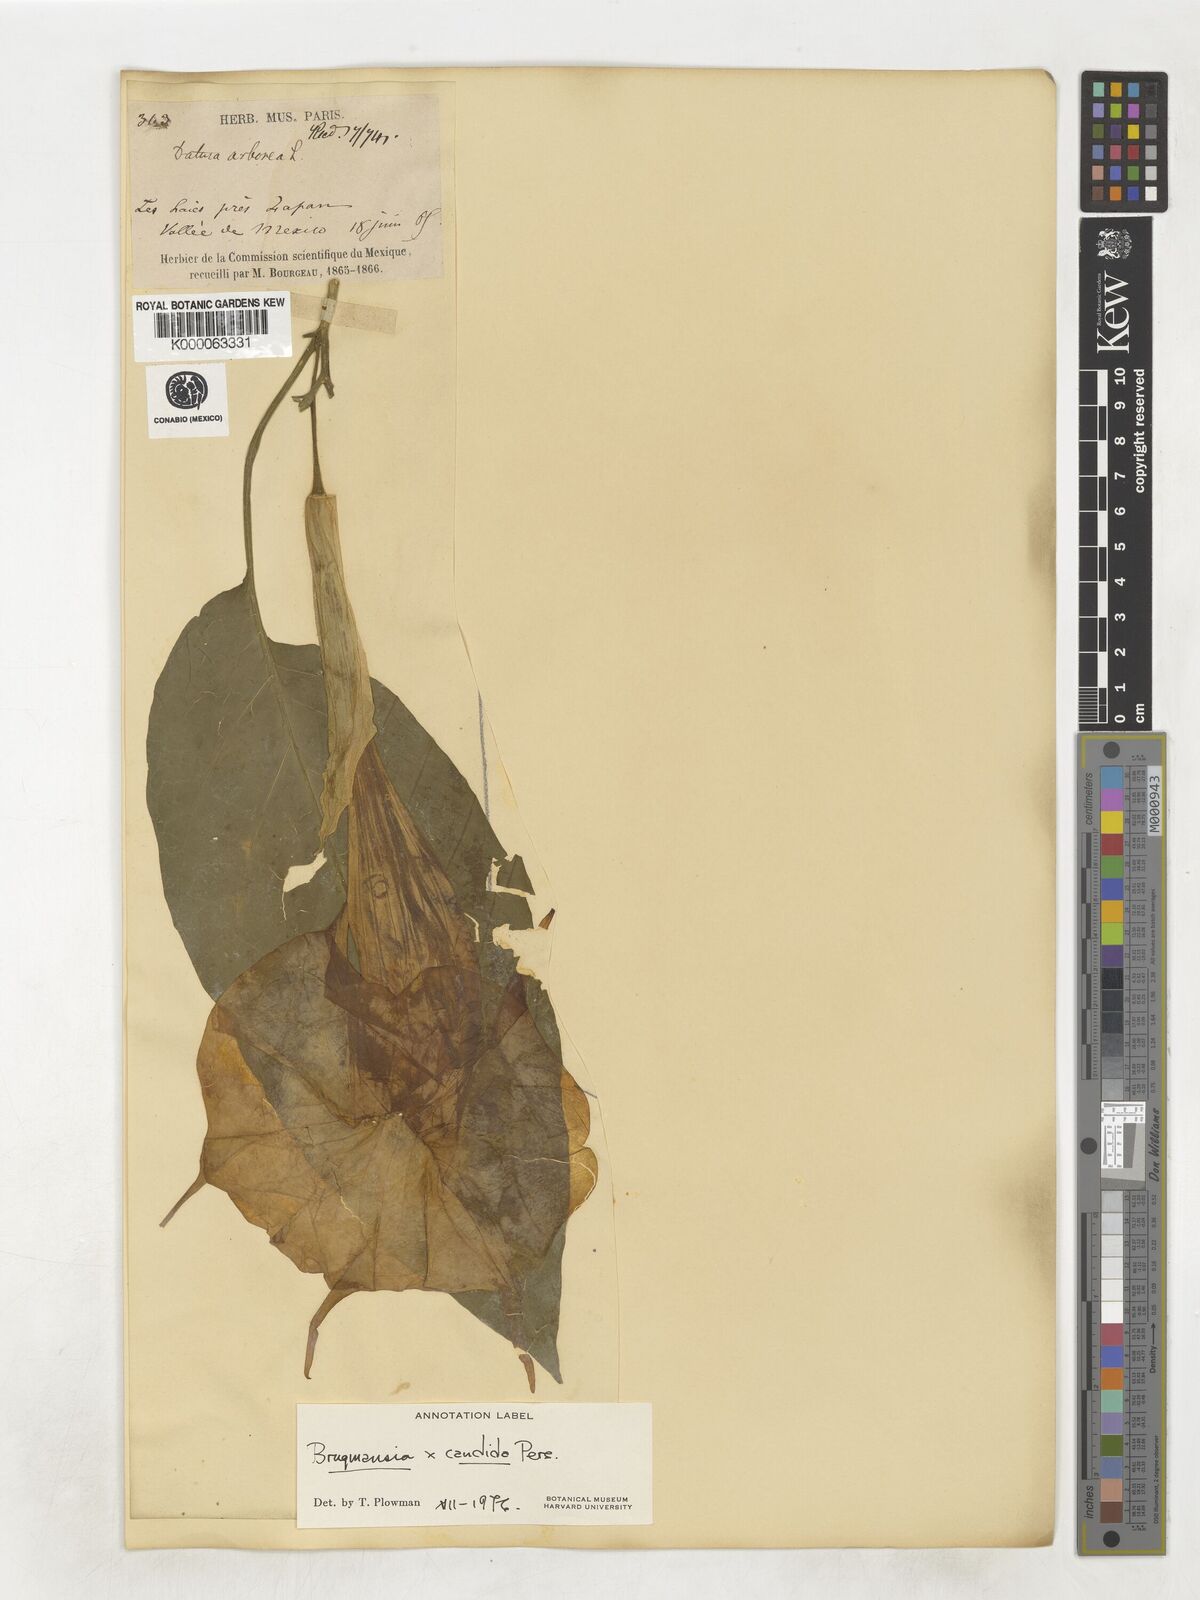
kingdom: Plantae
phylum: Tracheophyta
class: Magnoliopsida
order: Solanales
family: Solanaceae
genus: Brugmansia
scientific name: Brugmansia candida
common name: Angel's-trumpet
